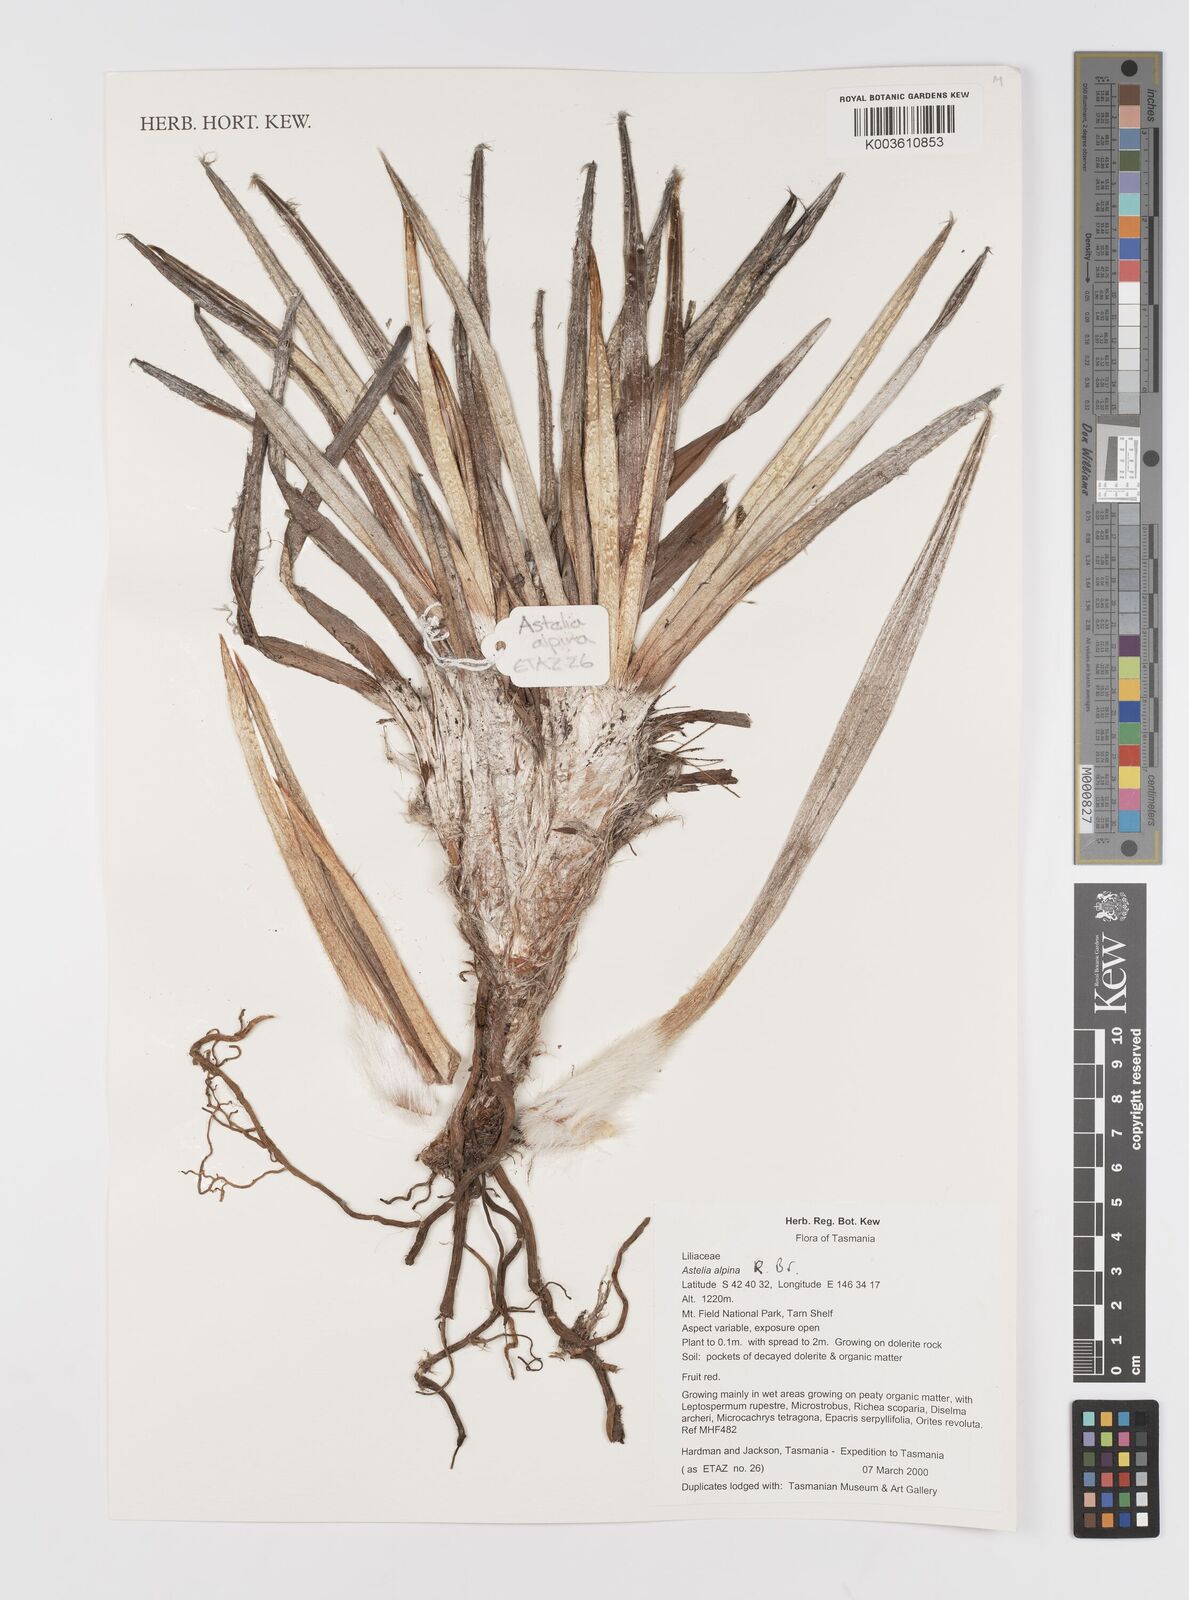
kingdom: Plantae
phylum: Tracheophyta
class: Liliopsida
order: Asparagales
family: Asteliaceae
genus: Astelia
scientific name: Astelia alpina
